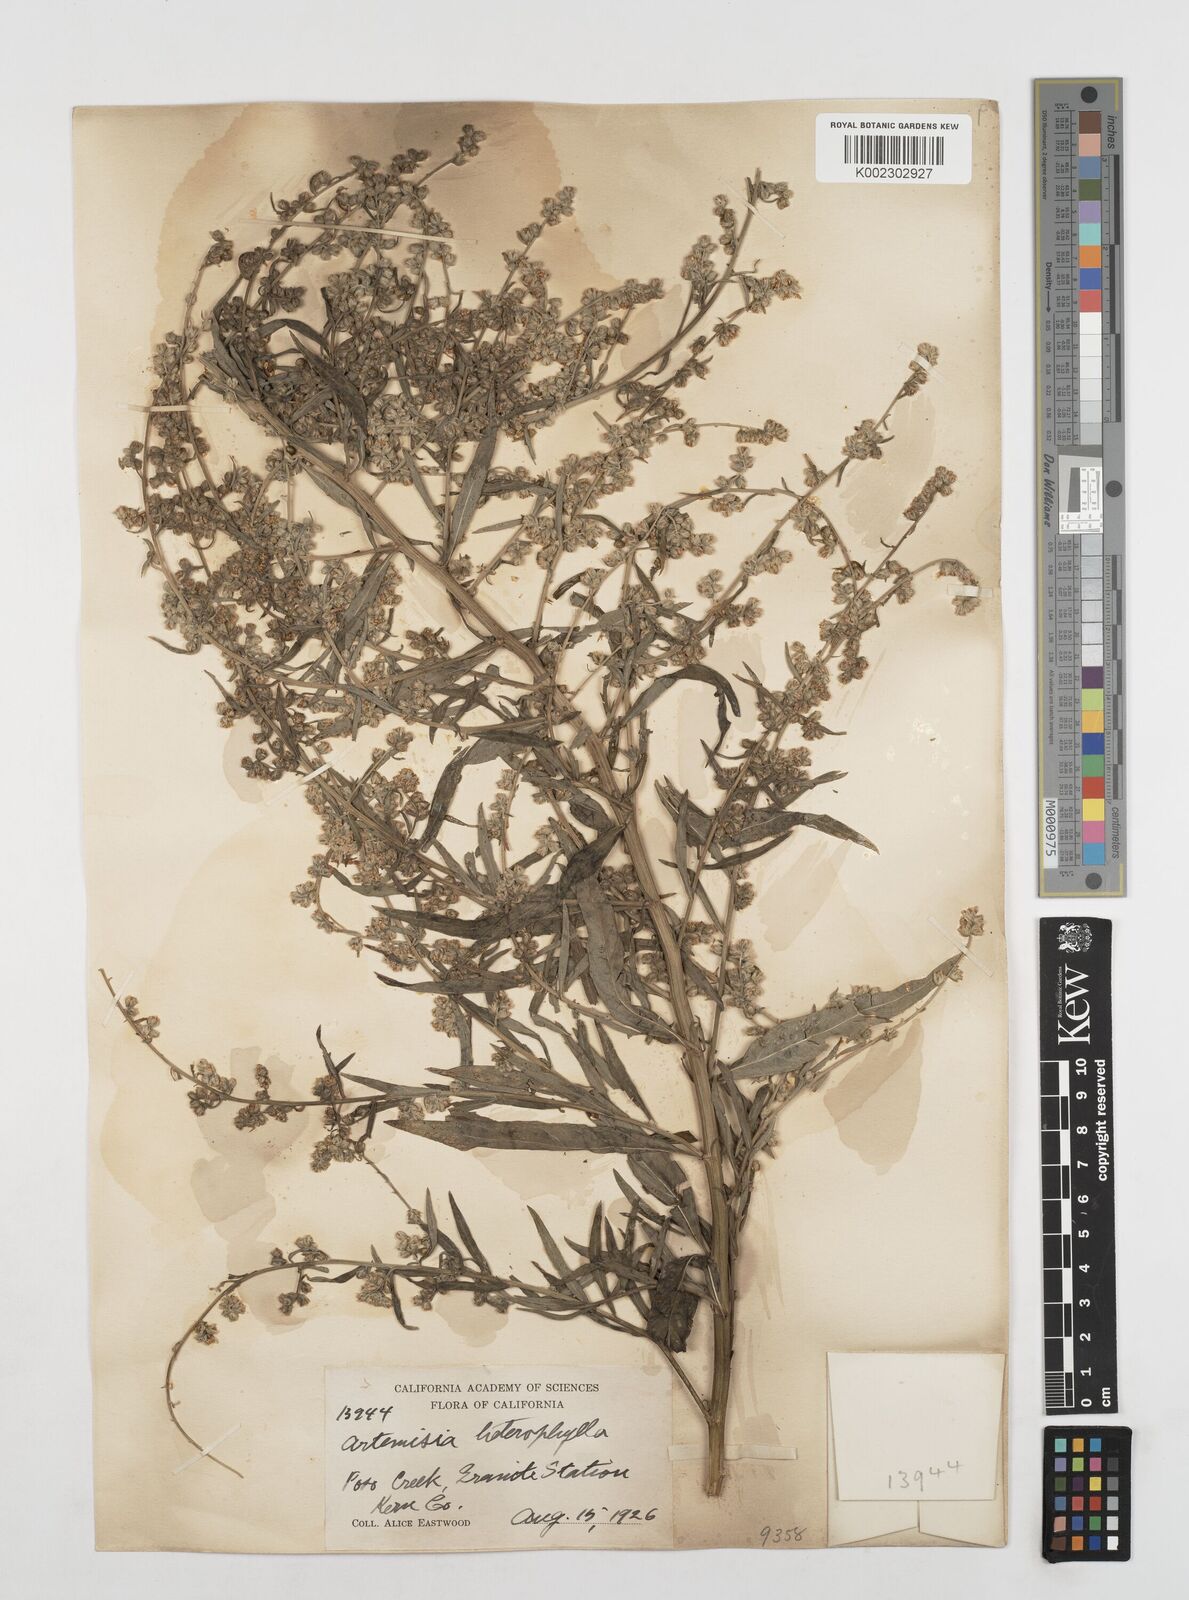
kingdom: Plantae
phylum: Tracheophyta
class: Magnoliopsida
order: Asterales
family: Asteraceae
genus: Artemisia
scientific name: Artemisia douglasiana
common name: Northwest mugwort
